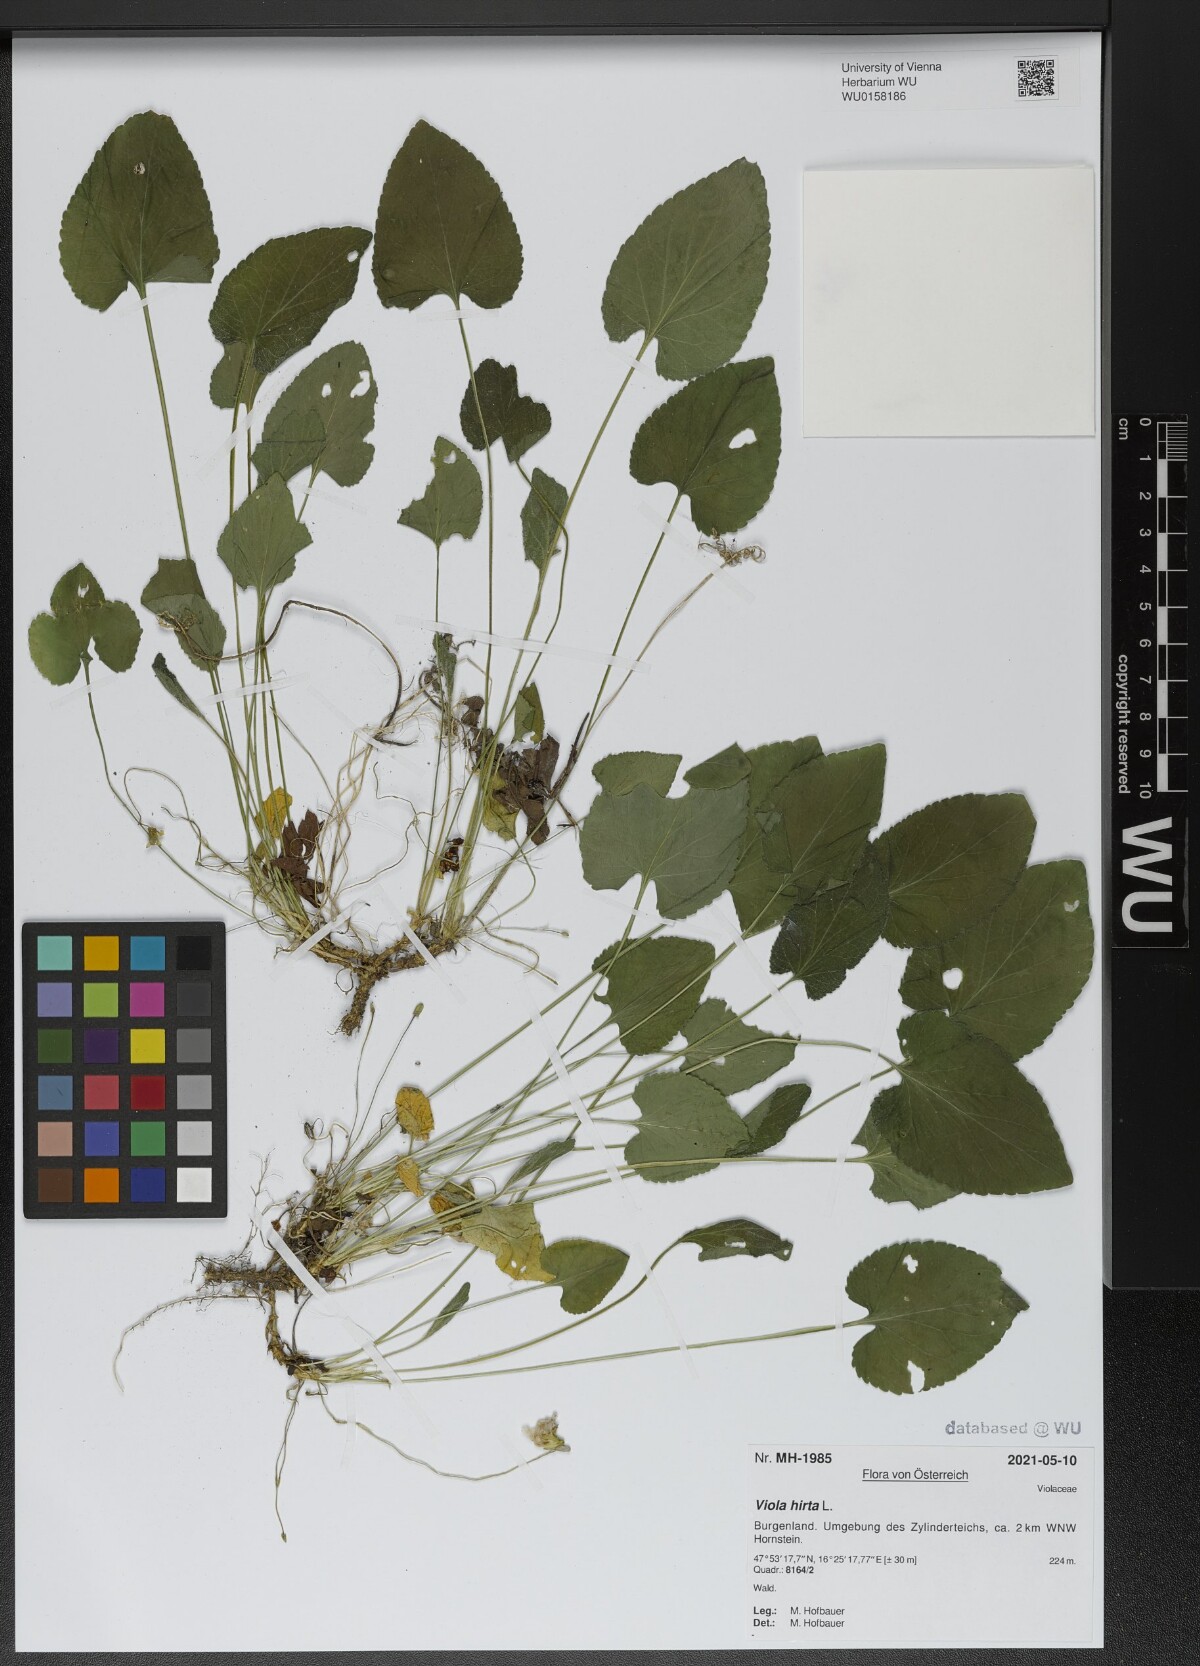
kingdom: Plantae
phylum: Tracheophyta
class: Magnoliopsida
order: Malpighiales
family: Violaceae
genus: Viola
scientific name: Viola hirta
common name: Hairy violet
